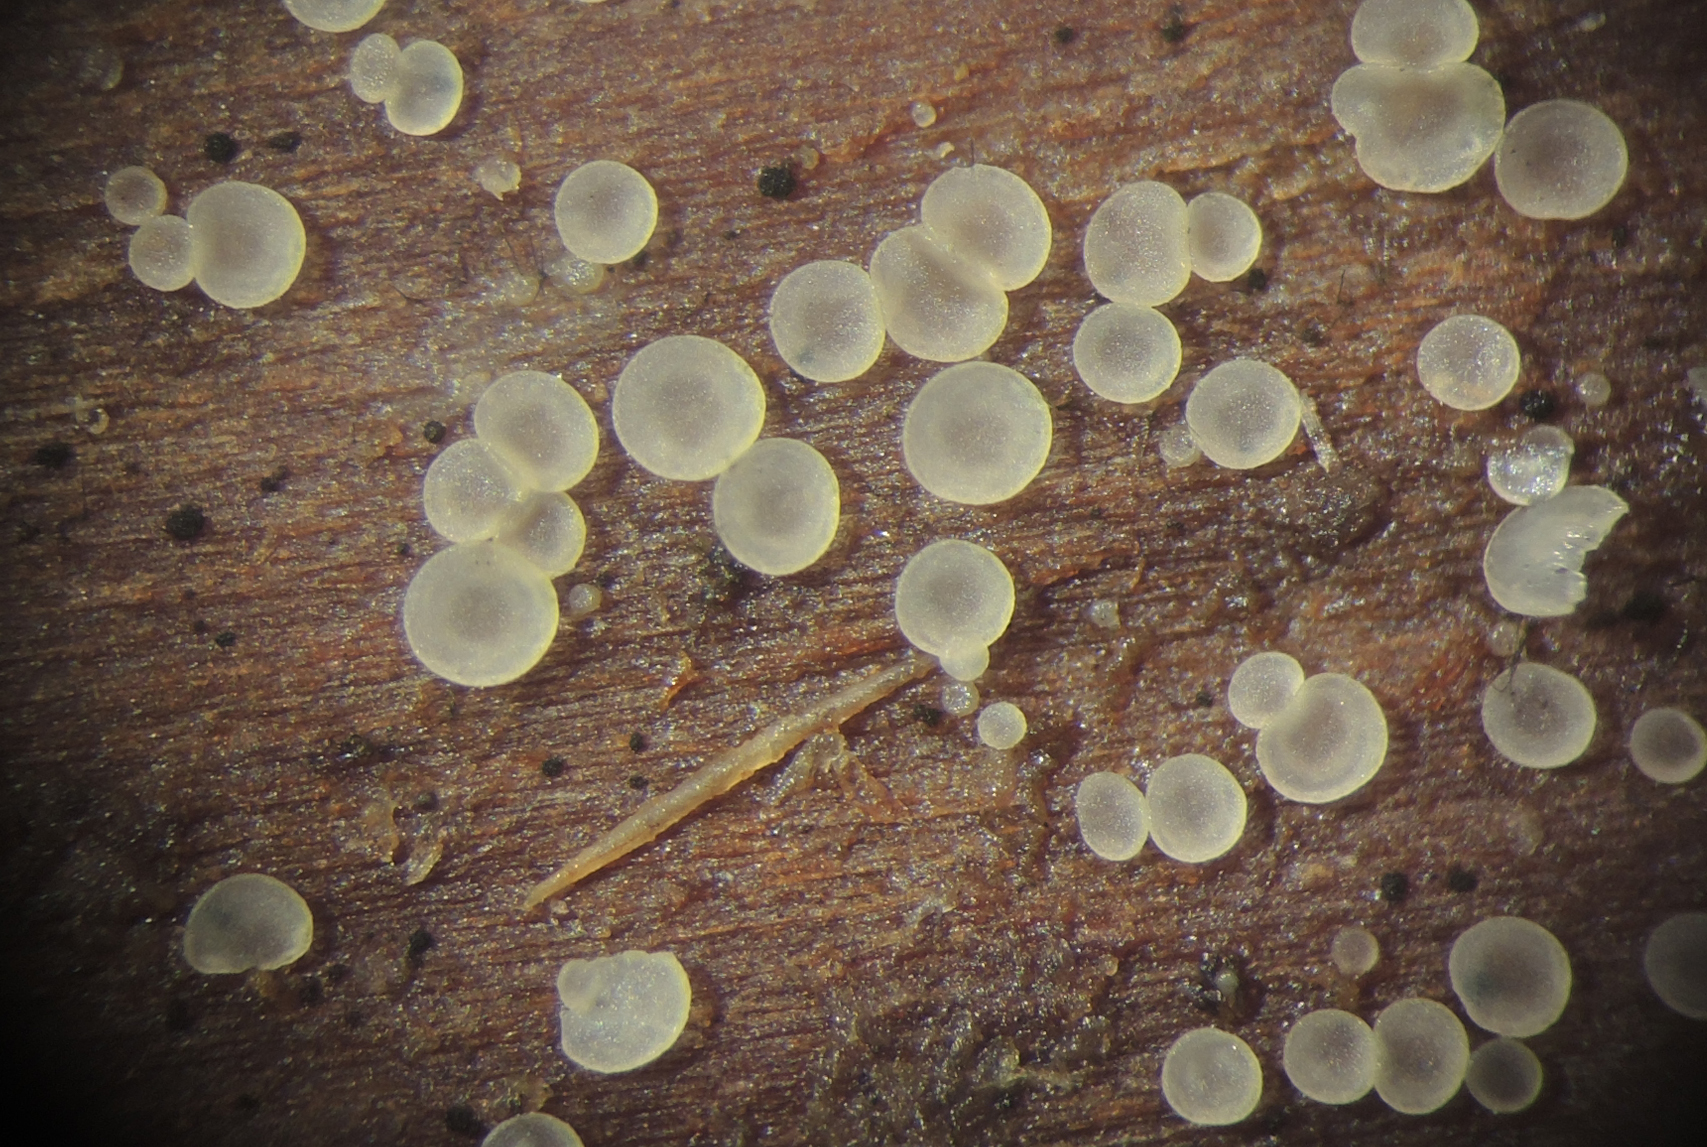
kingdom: Fungi
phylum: Ascomycota
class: Orbiliomycetes
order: Orbiliales
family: Orbiliaceae
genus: Orbilia
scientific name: Orbilia xanthostigma
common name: krumsporet voksskive
